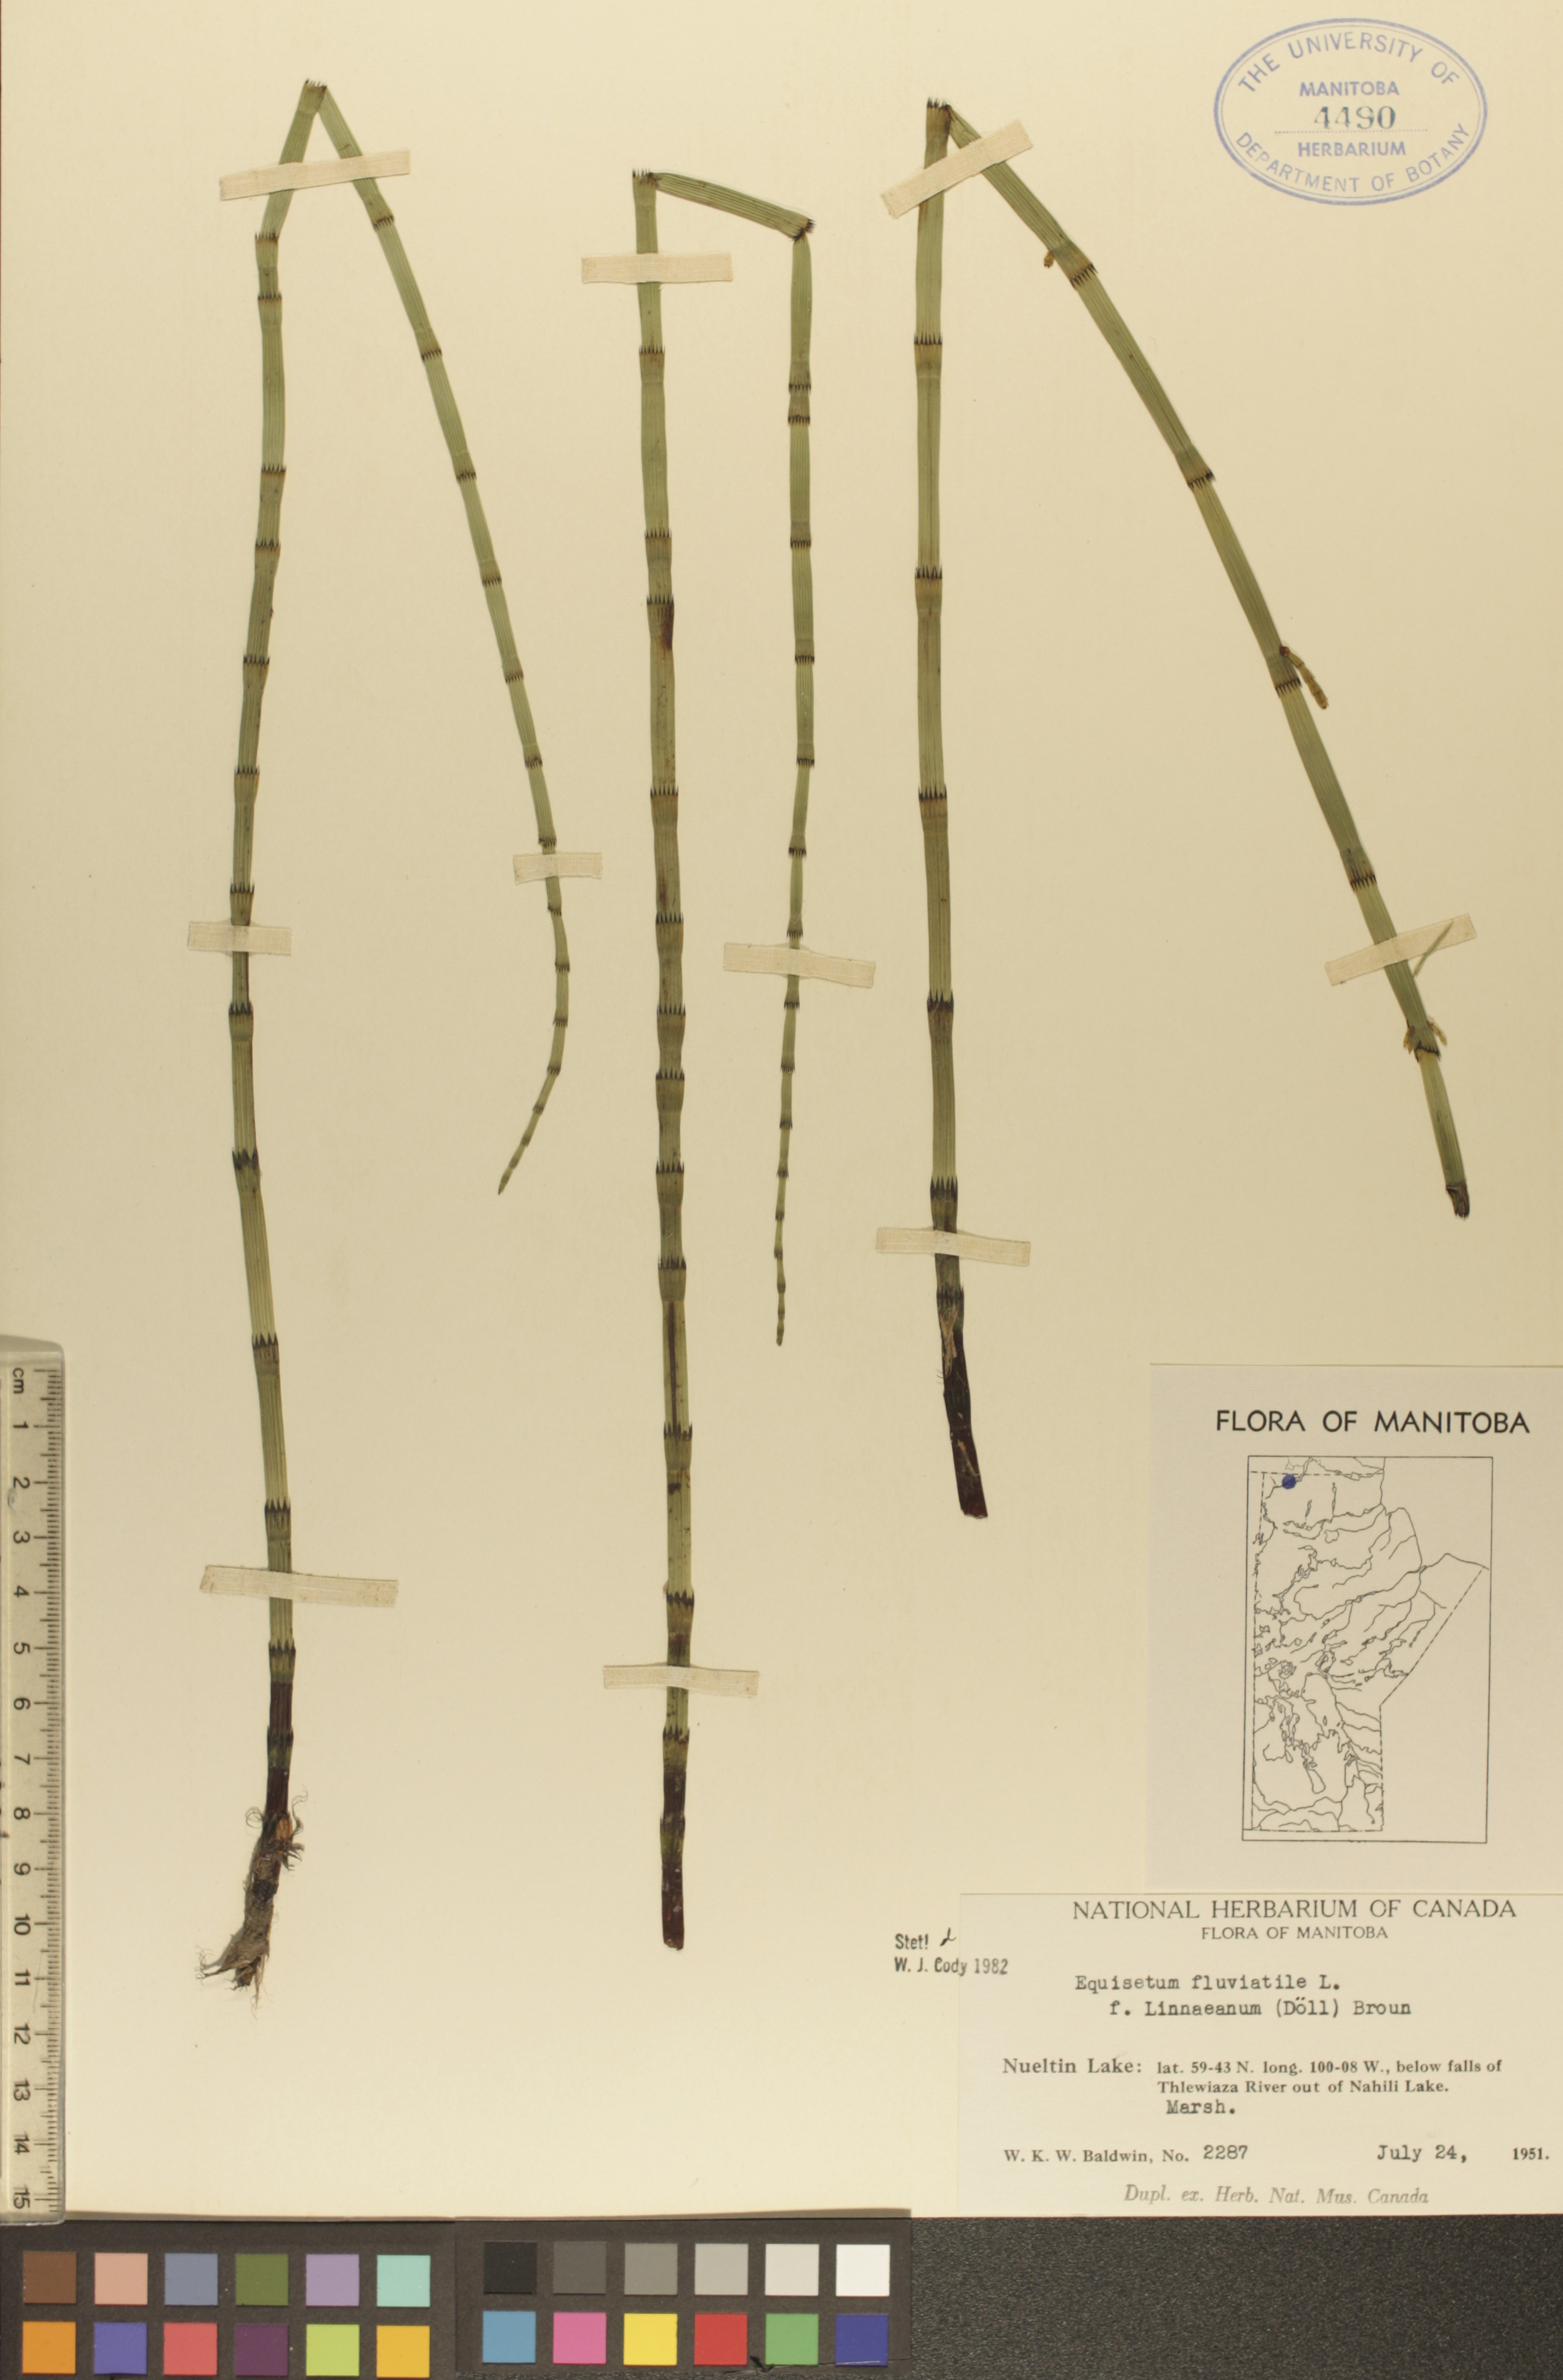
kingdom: Plantae
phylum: Tracheophyta
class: Polypodiopsida
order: Equisetales
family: Equisetaceae
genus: Equisetum
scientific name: Equisetum fluviatile
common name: Water horsetail
